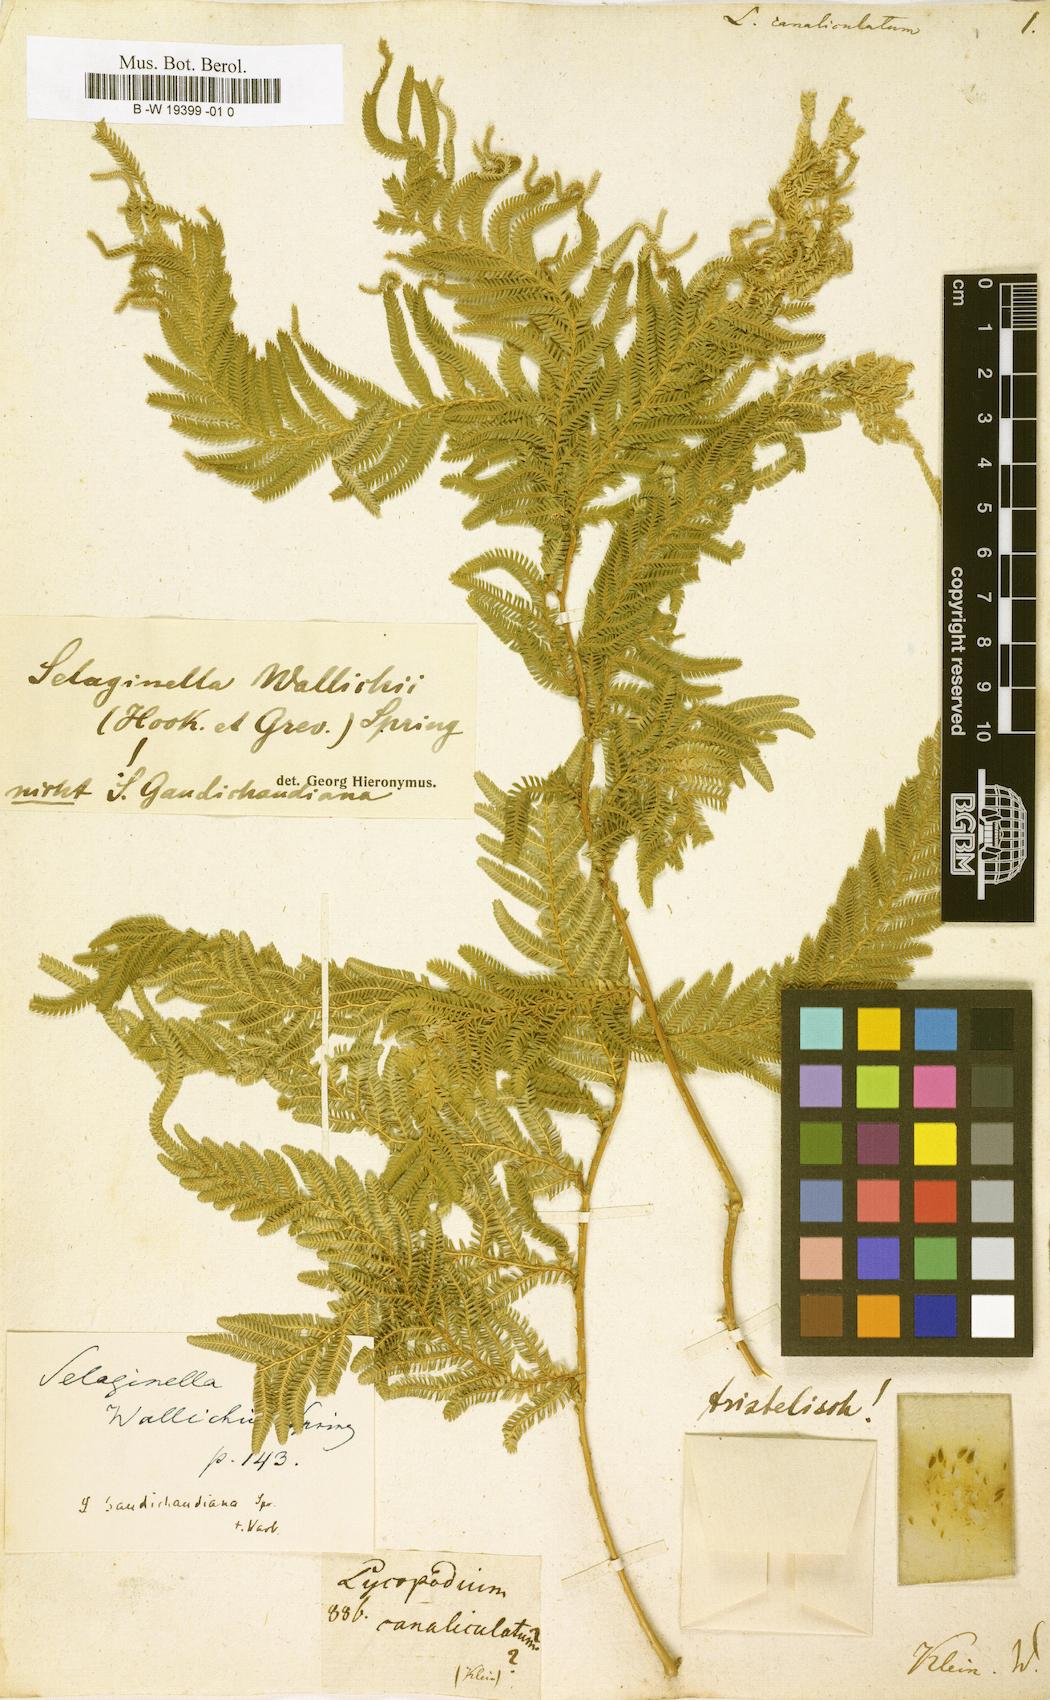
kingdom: Plantae
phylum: Tracheophyta
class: Lycopodiopsida
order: Selaginellales
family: Selaginellaceae
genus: Selaginella
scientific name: Selaginella
